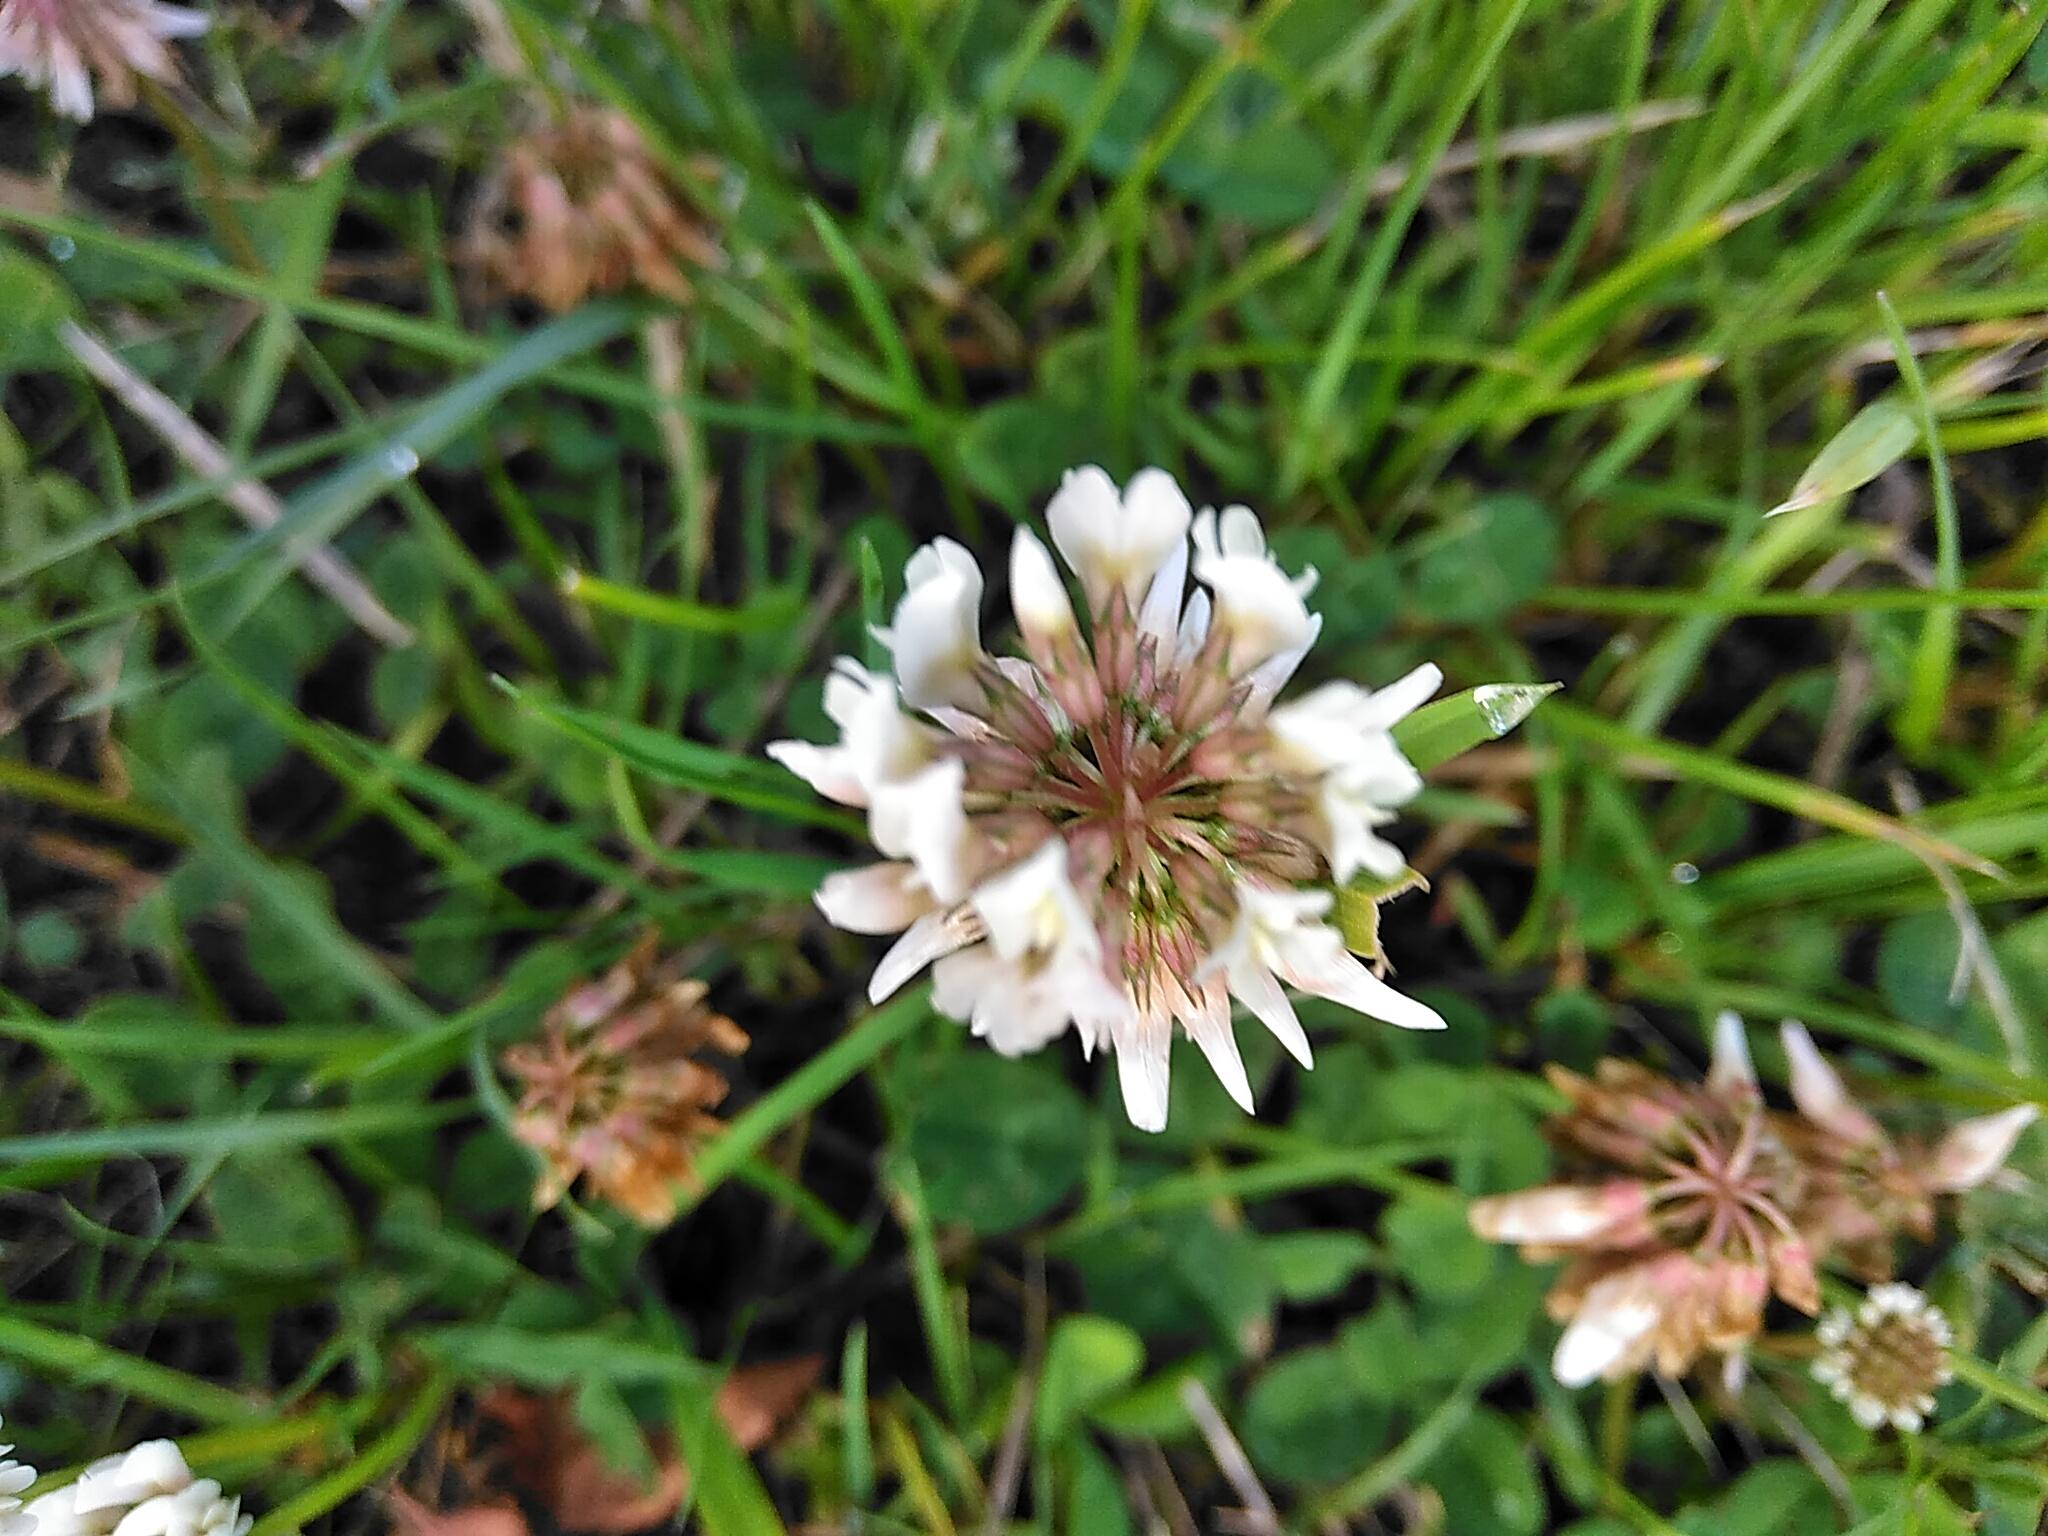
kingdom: Plantae
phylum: Tracheophyta
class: Magnoliopsida
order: Fabales
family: Fabaceae
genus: Trifolium
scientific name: Trifolium repens
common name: Hvid-kløver
